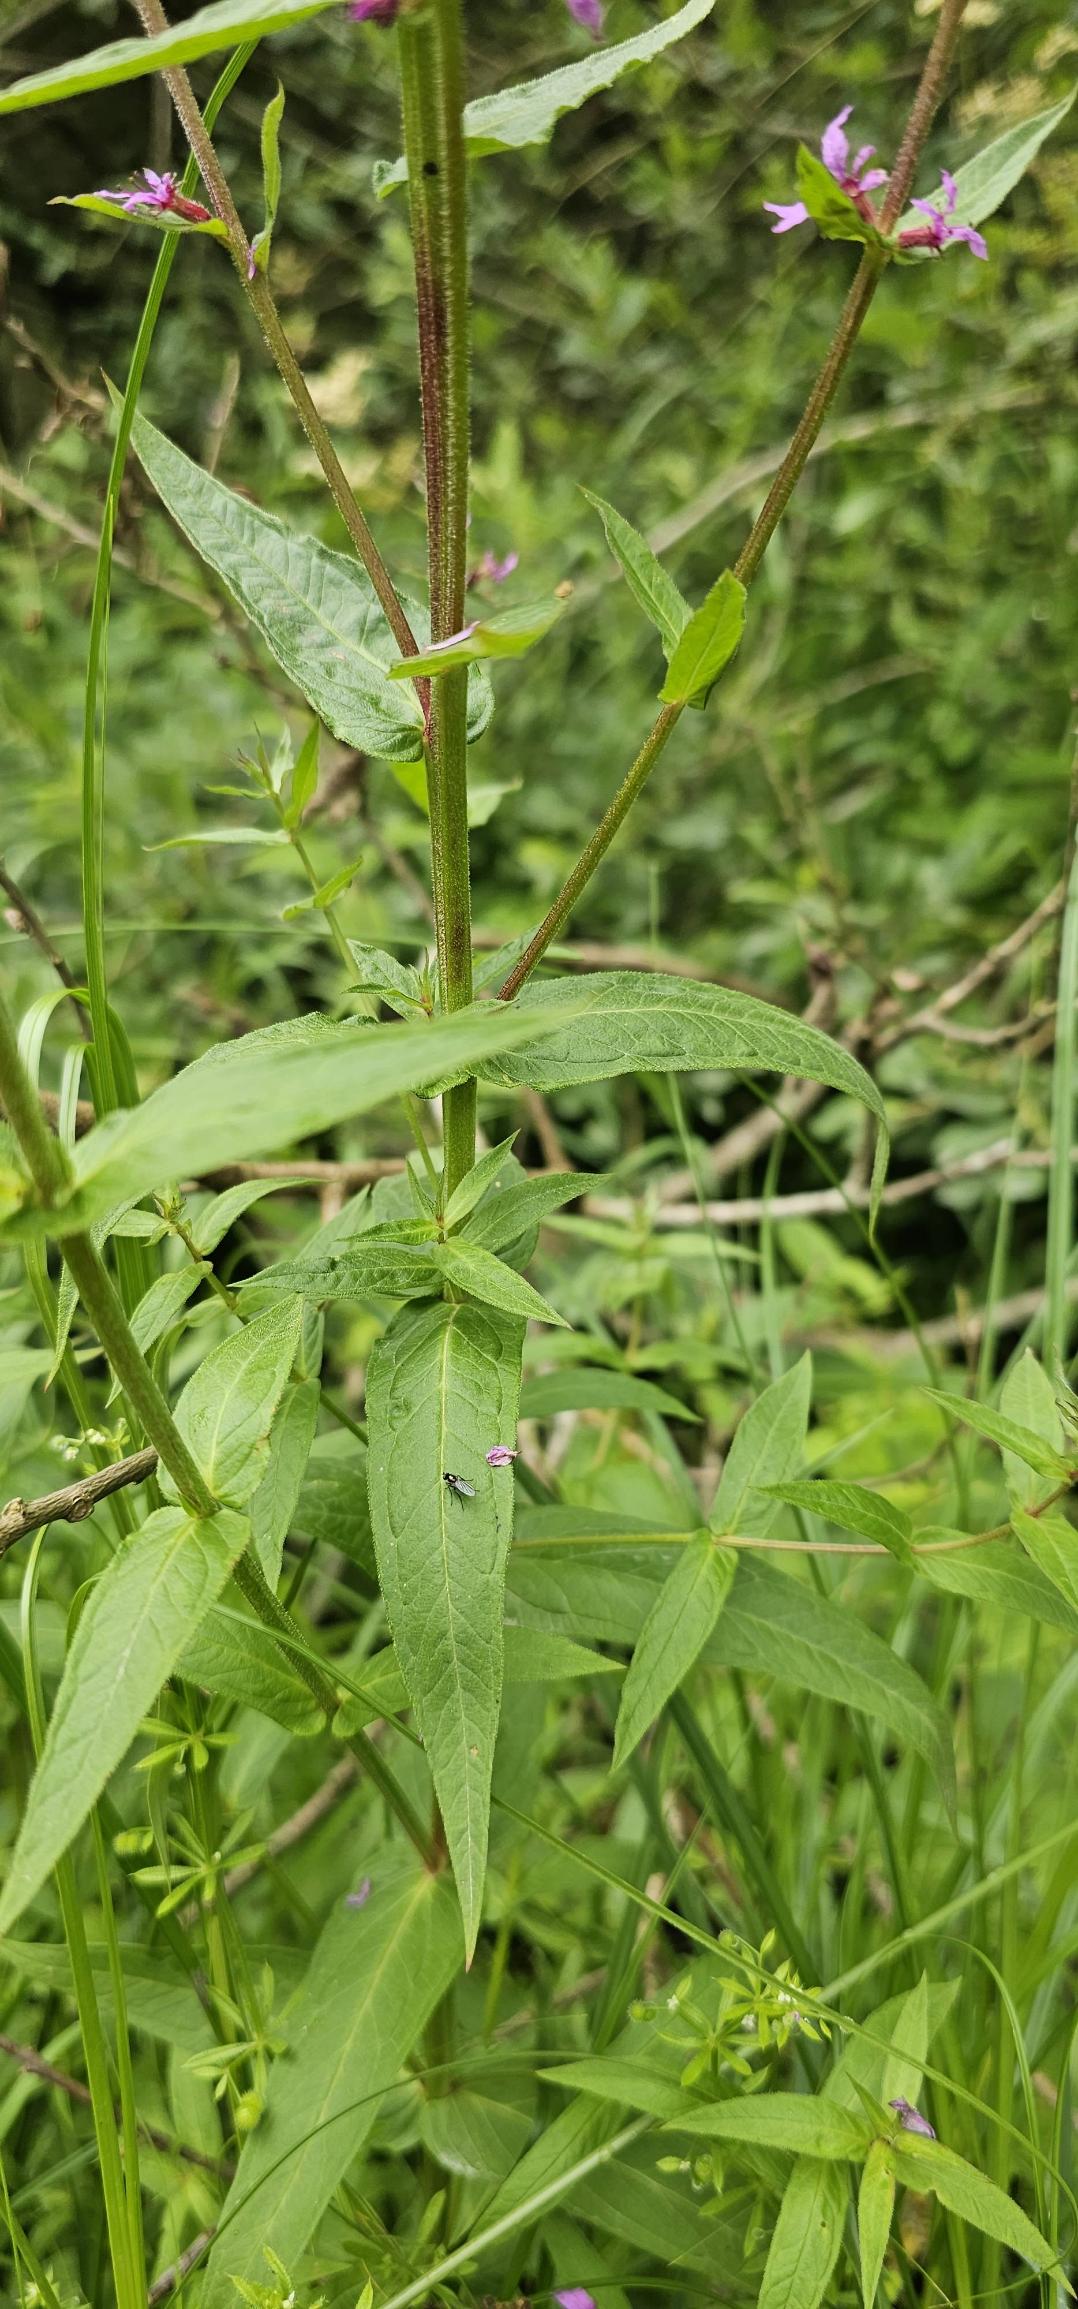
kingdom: Plantae
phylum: Tracheophyta
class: Magnoliopsida
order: Myrtales
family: Lythraceae
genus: Lythrum
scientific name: Lythrum salicaria
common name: Kattehale
